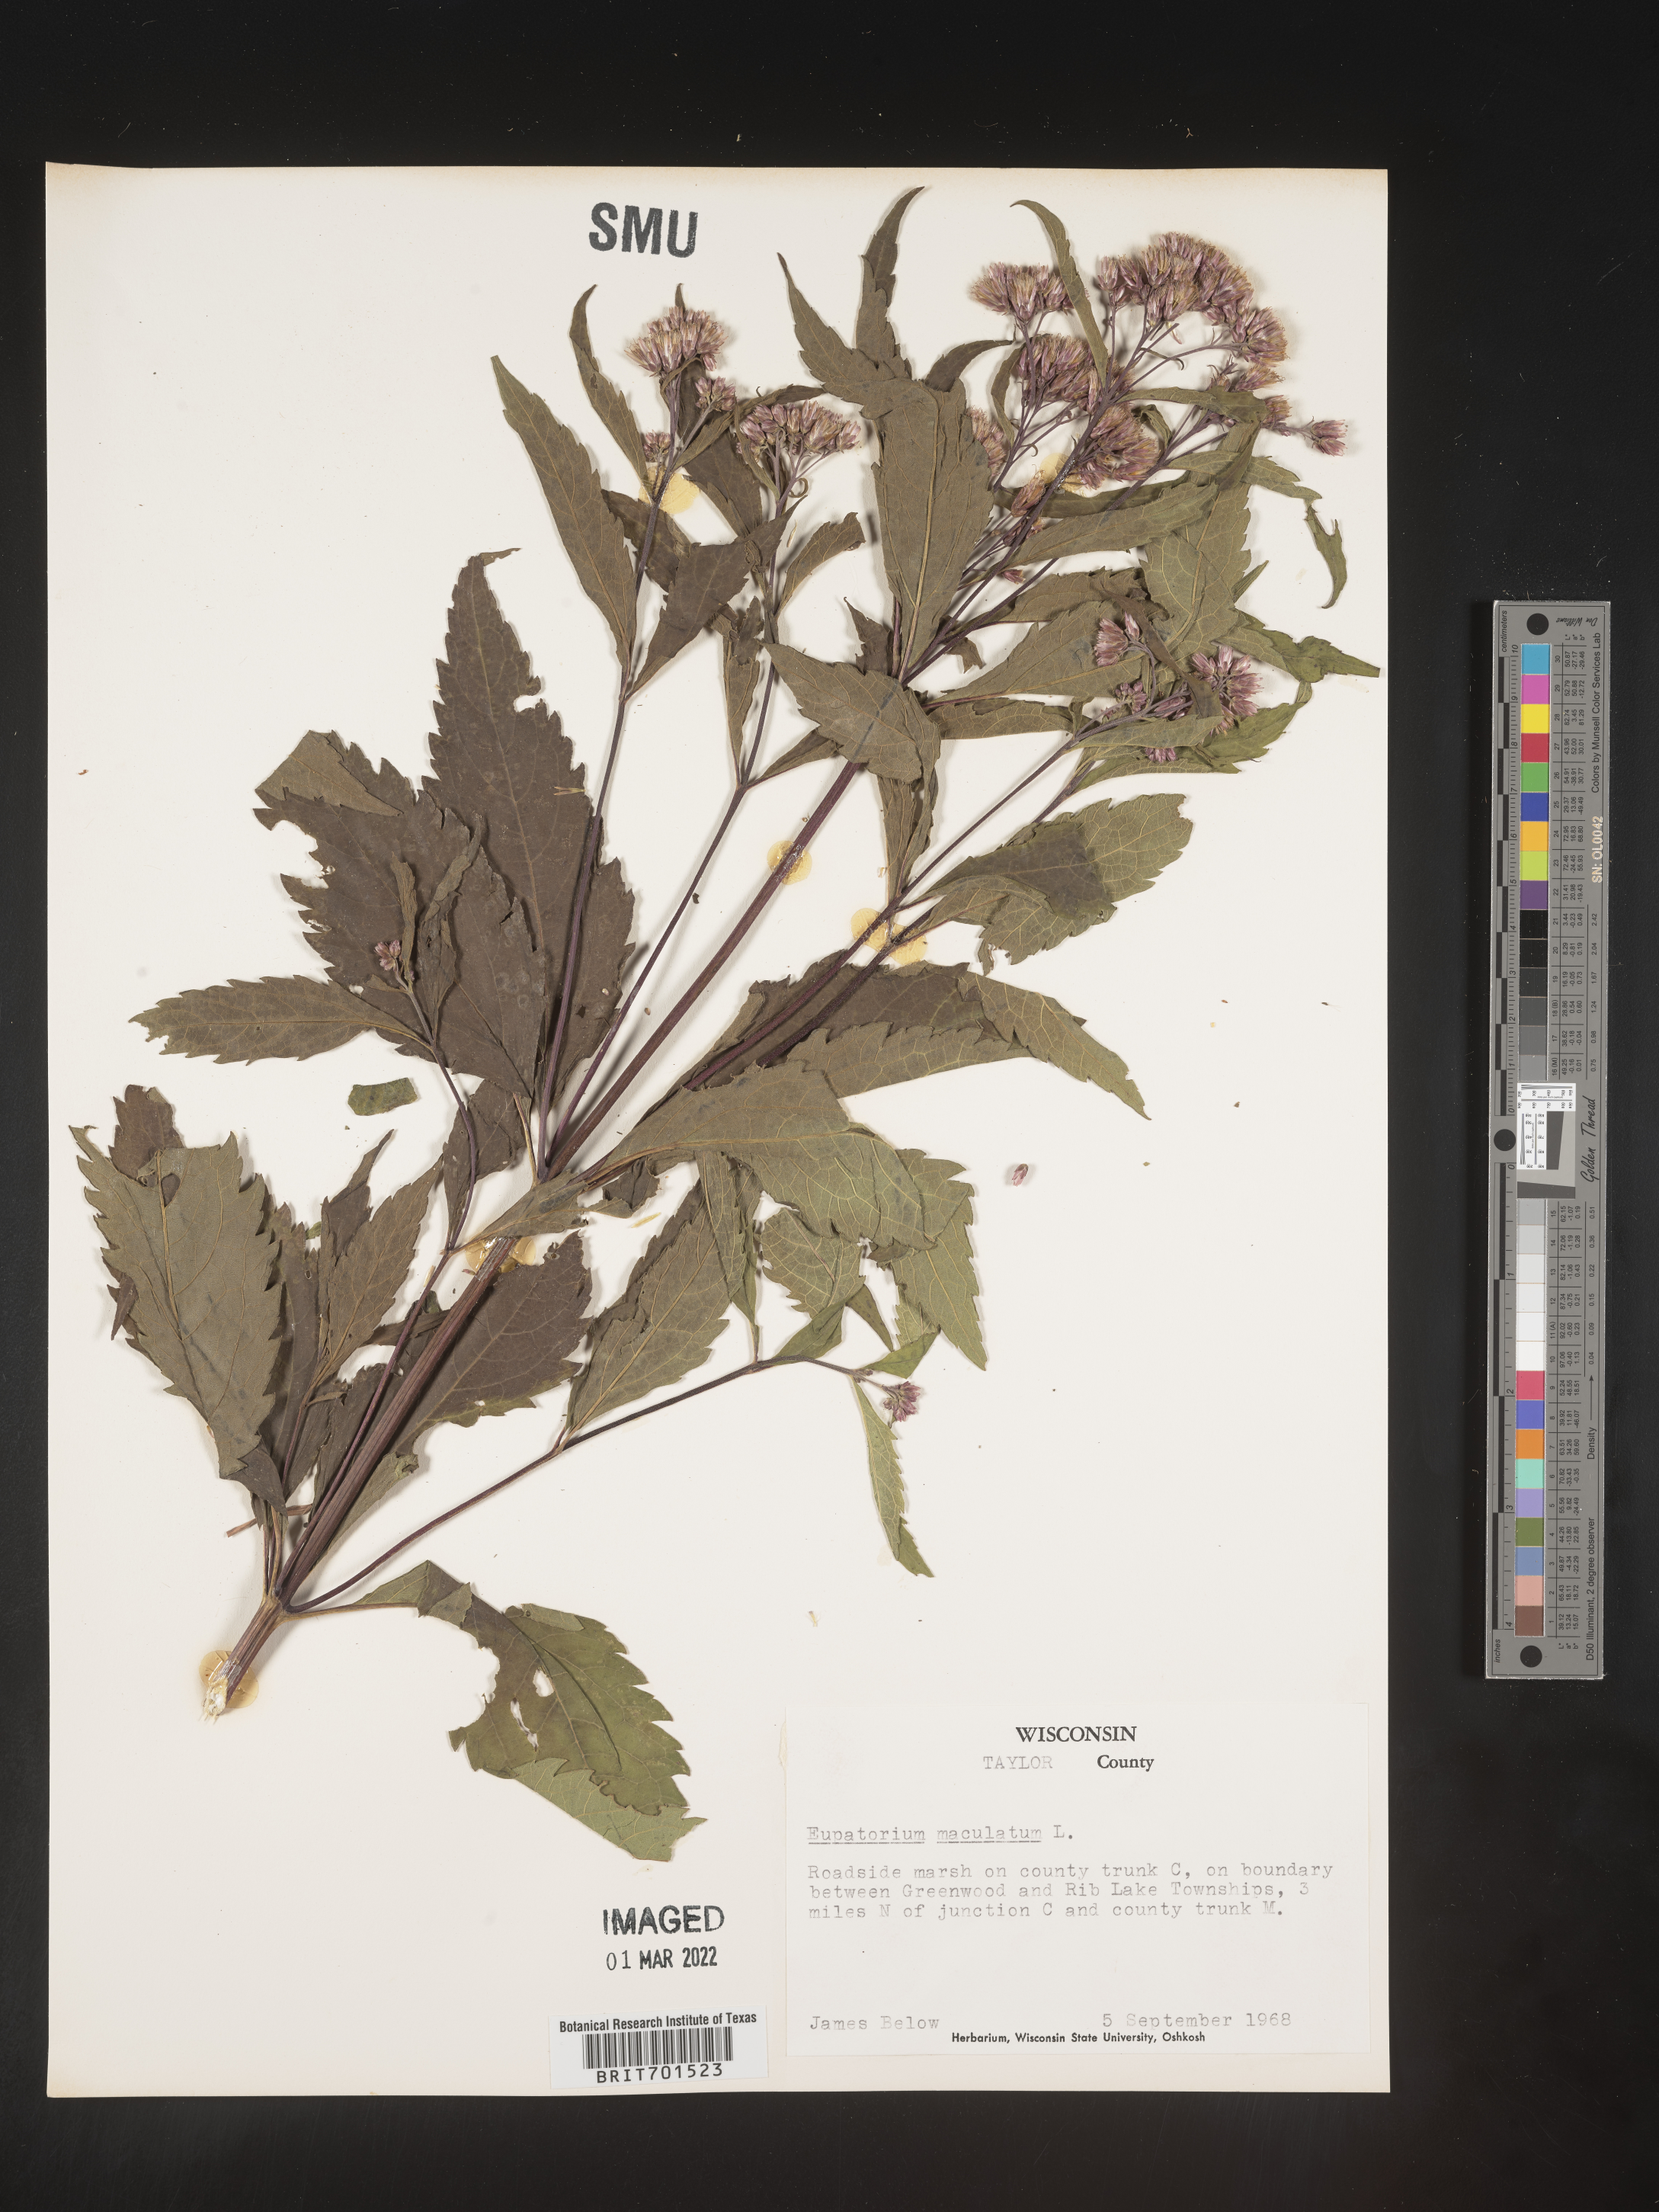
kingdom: Plantae
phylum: Tracheophyta
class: Magnoliopsida
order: Asterales
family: Asteraceae
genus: Eutrochium
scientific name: Eutrochium maculatum
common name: Spotted joe pye weed
